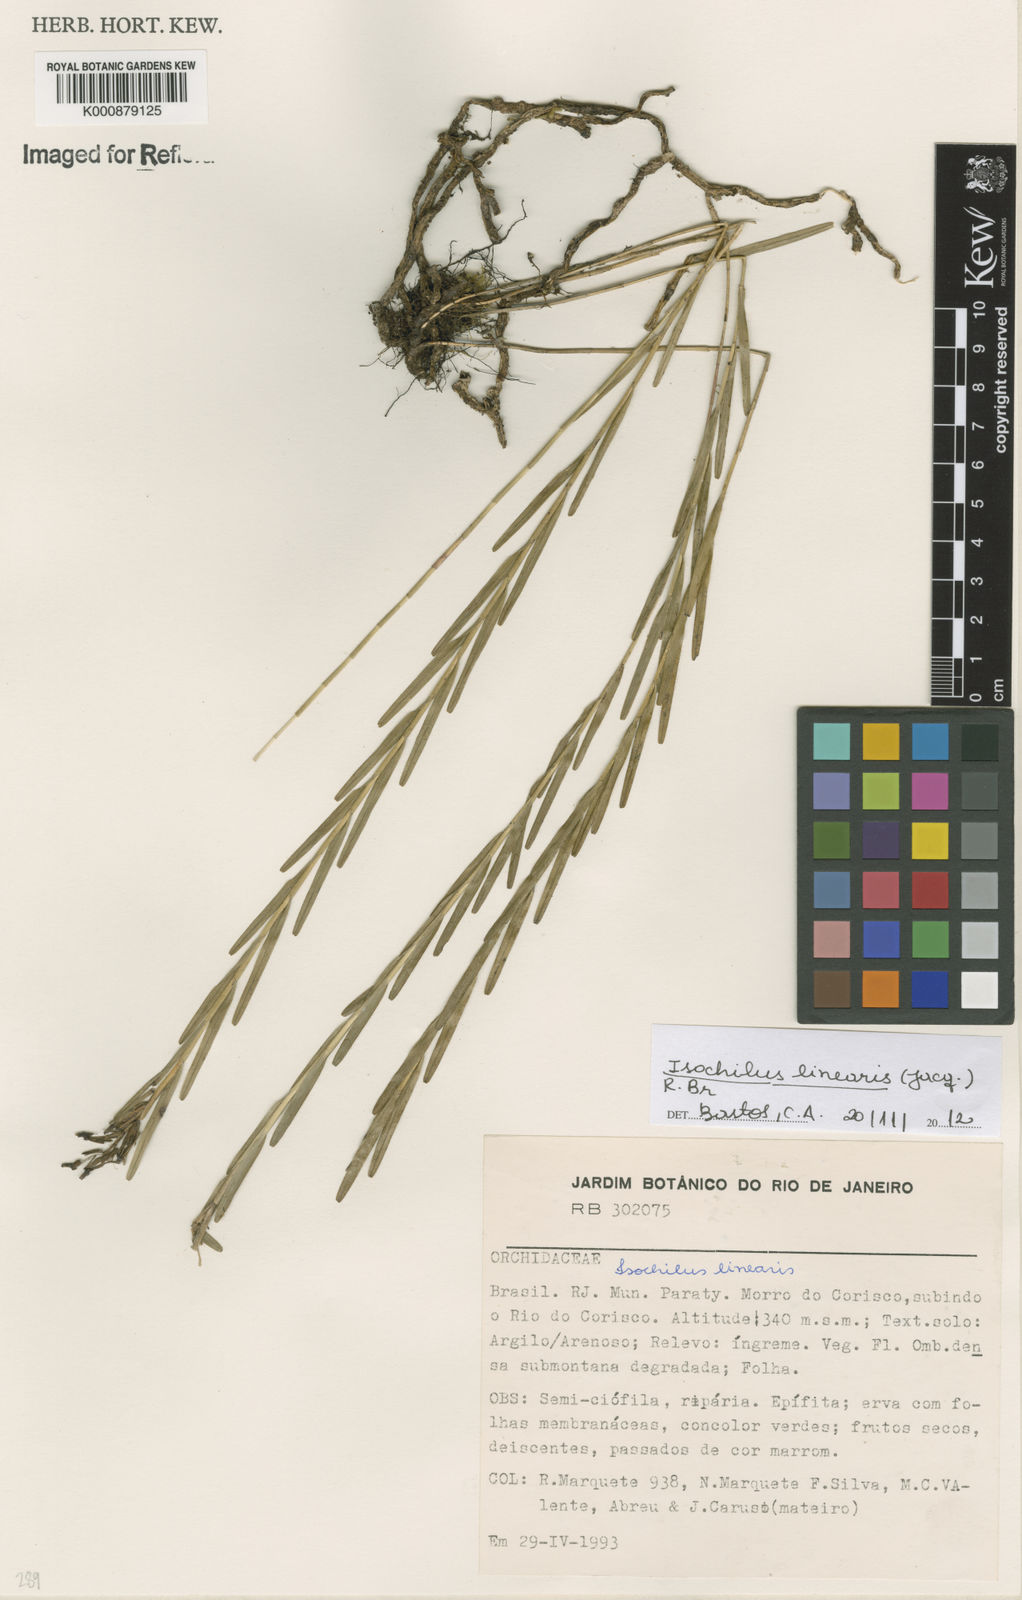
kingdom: Plantae
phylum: Tracheophyta
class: Liliopsida
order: Asparagales
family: Orchidaceae
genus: Isochilus
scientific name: Isochilus linearis
